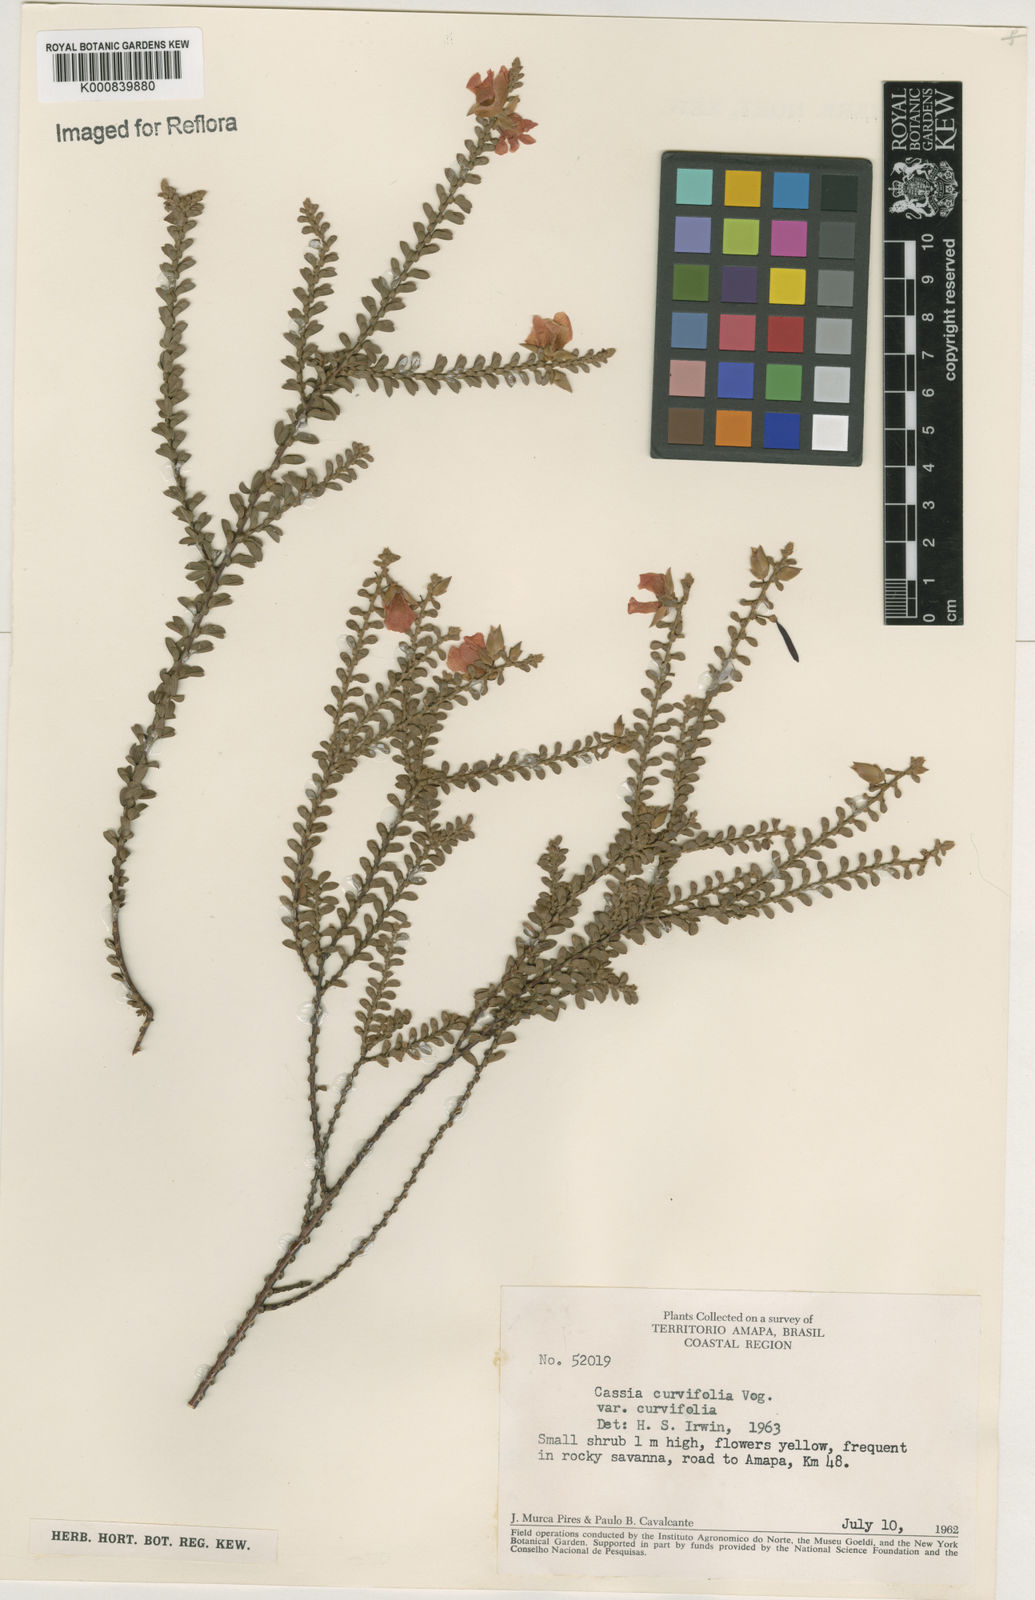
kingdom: Plantae
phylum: Tracheophyta
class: Magnoliopsida
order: Fabales
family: Fabaceae
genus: Chamaecrista
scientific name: Chamaecrista ramosa
